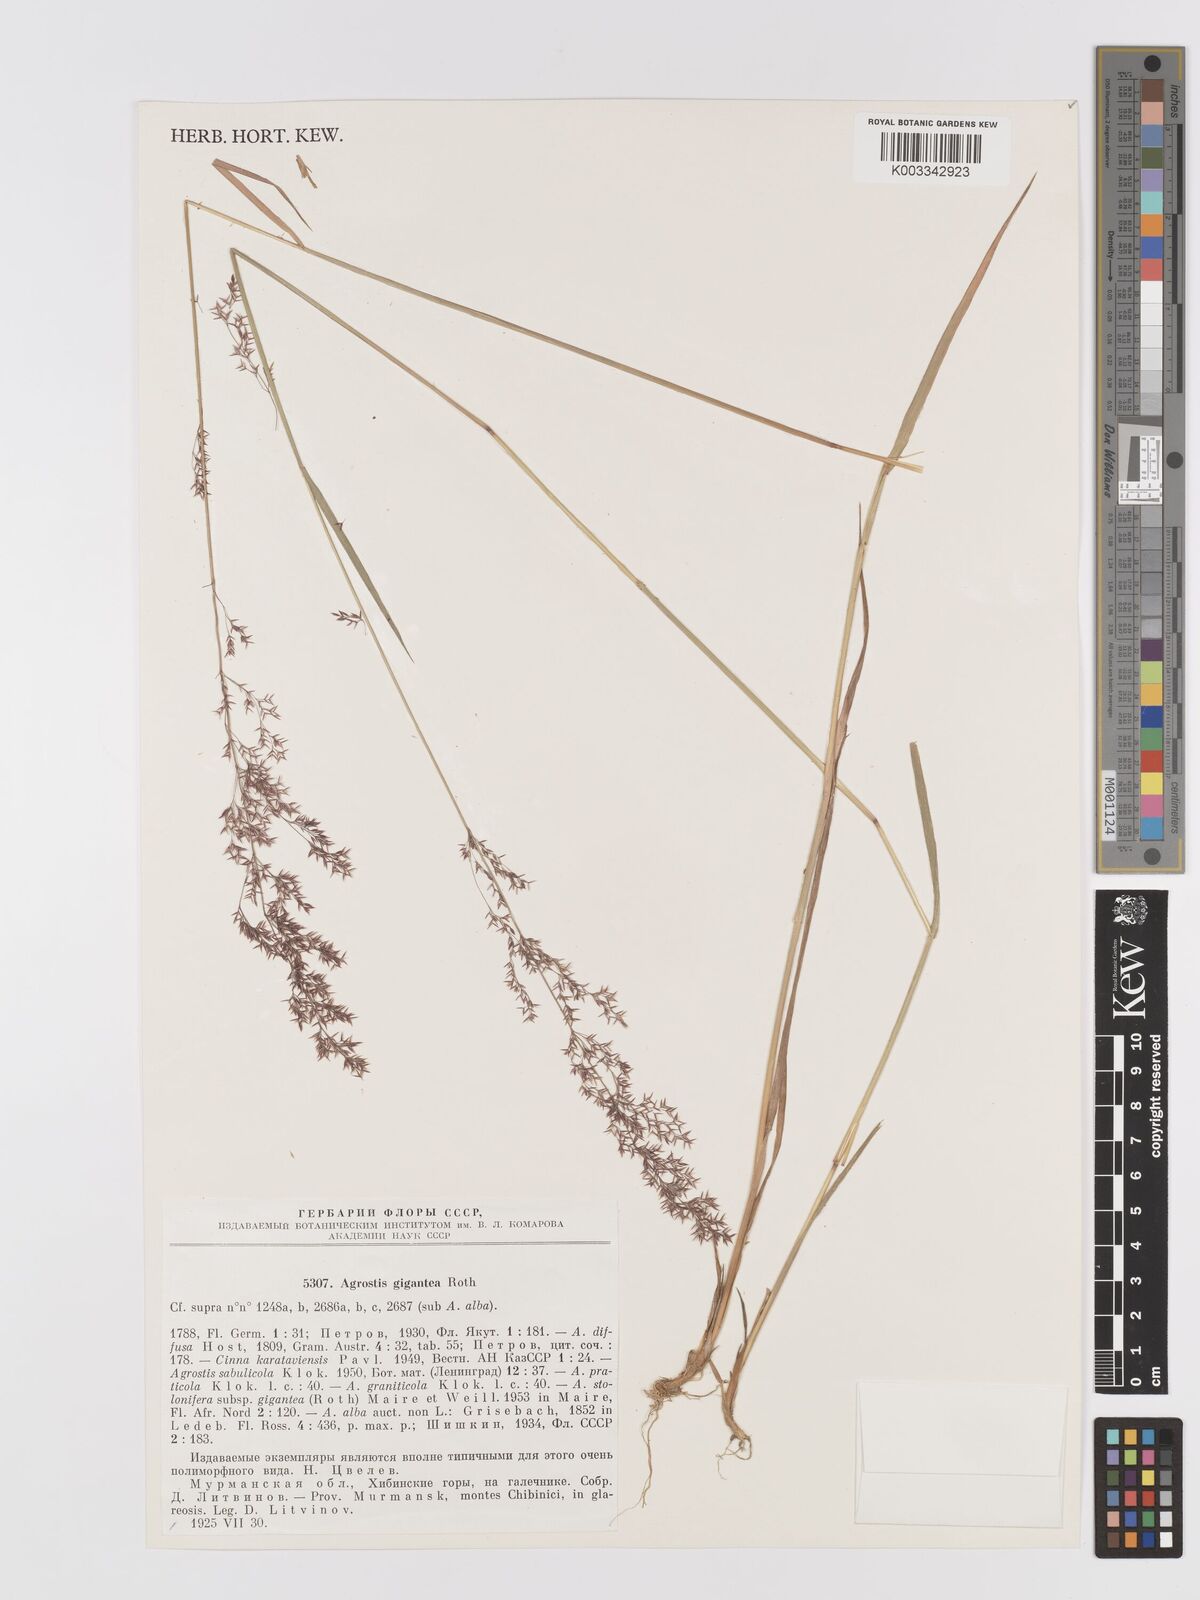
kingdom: Plantae
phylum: Tracheophyta
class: Liliopsida
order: Poales
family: Poaceae
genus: Agrostis
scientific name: Agrostis gigantea
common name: Black bent
